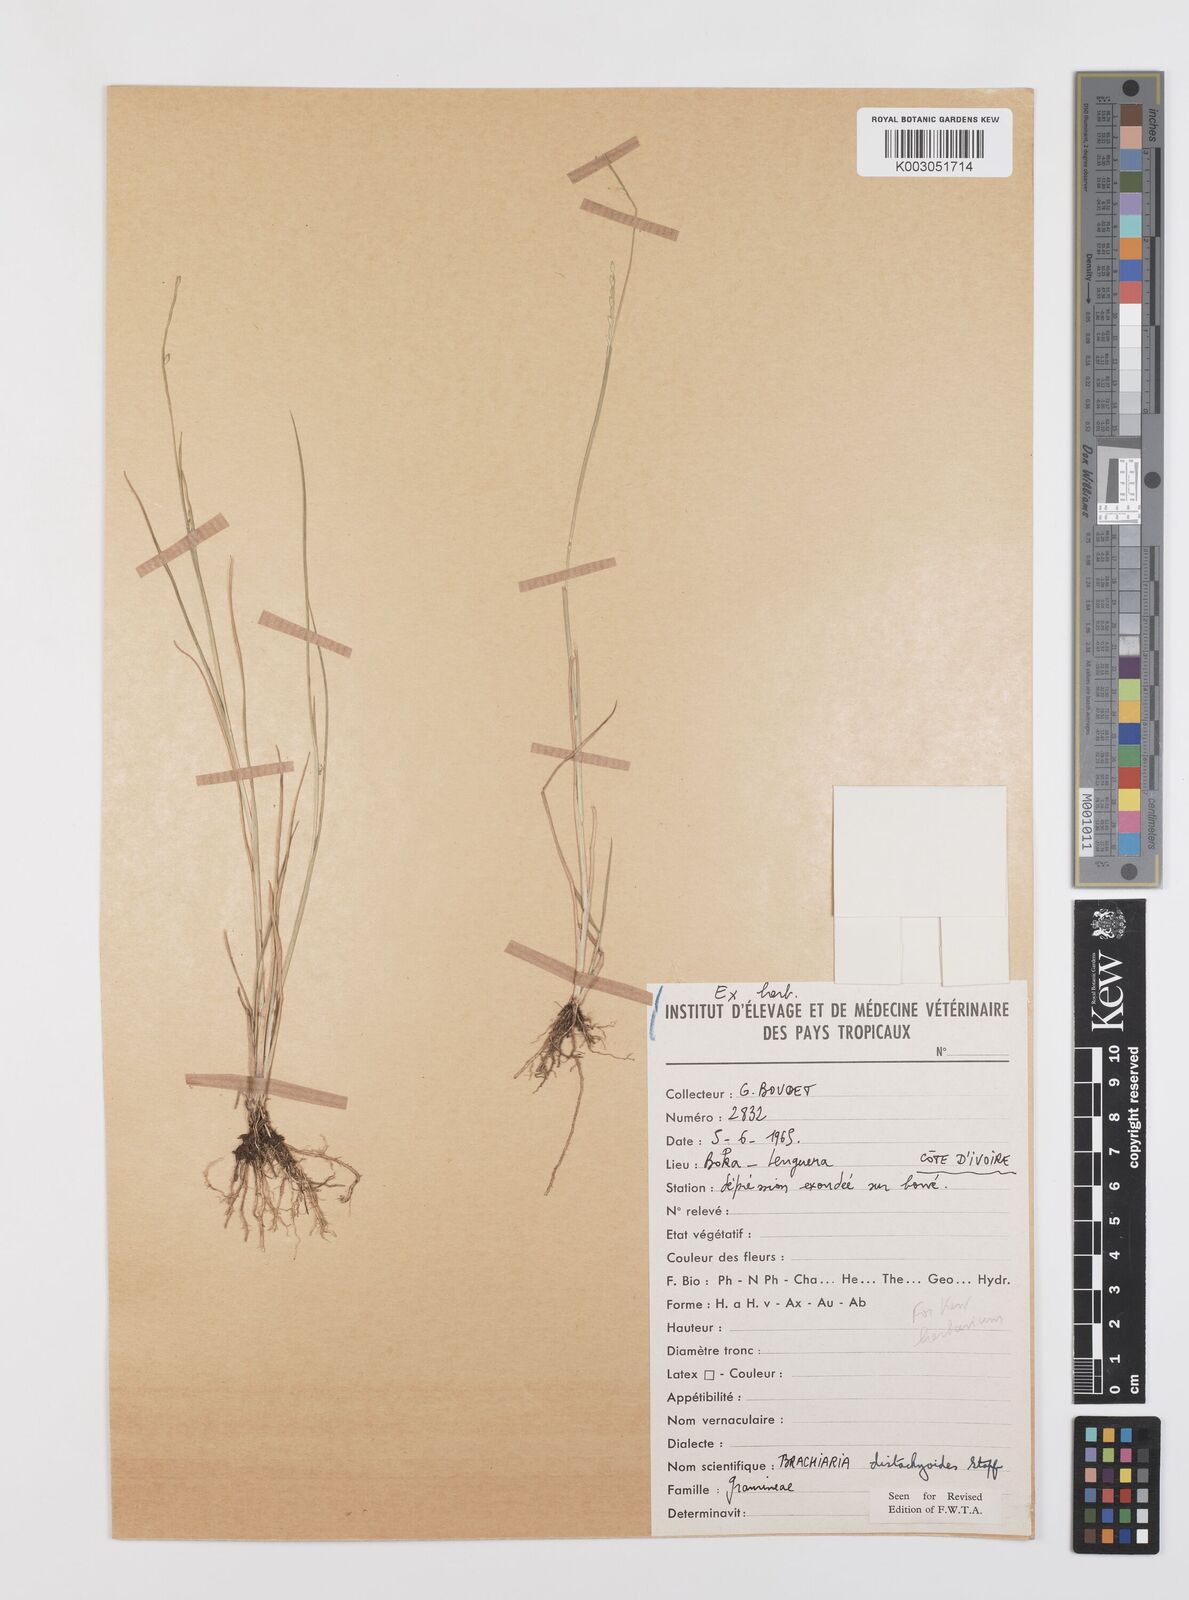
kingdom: Plantae
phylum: Tracheophyta
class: Liliopsida
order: Poales
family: Poaceae
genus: Urochloa
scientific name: Urochloa distachyoides
